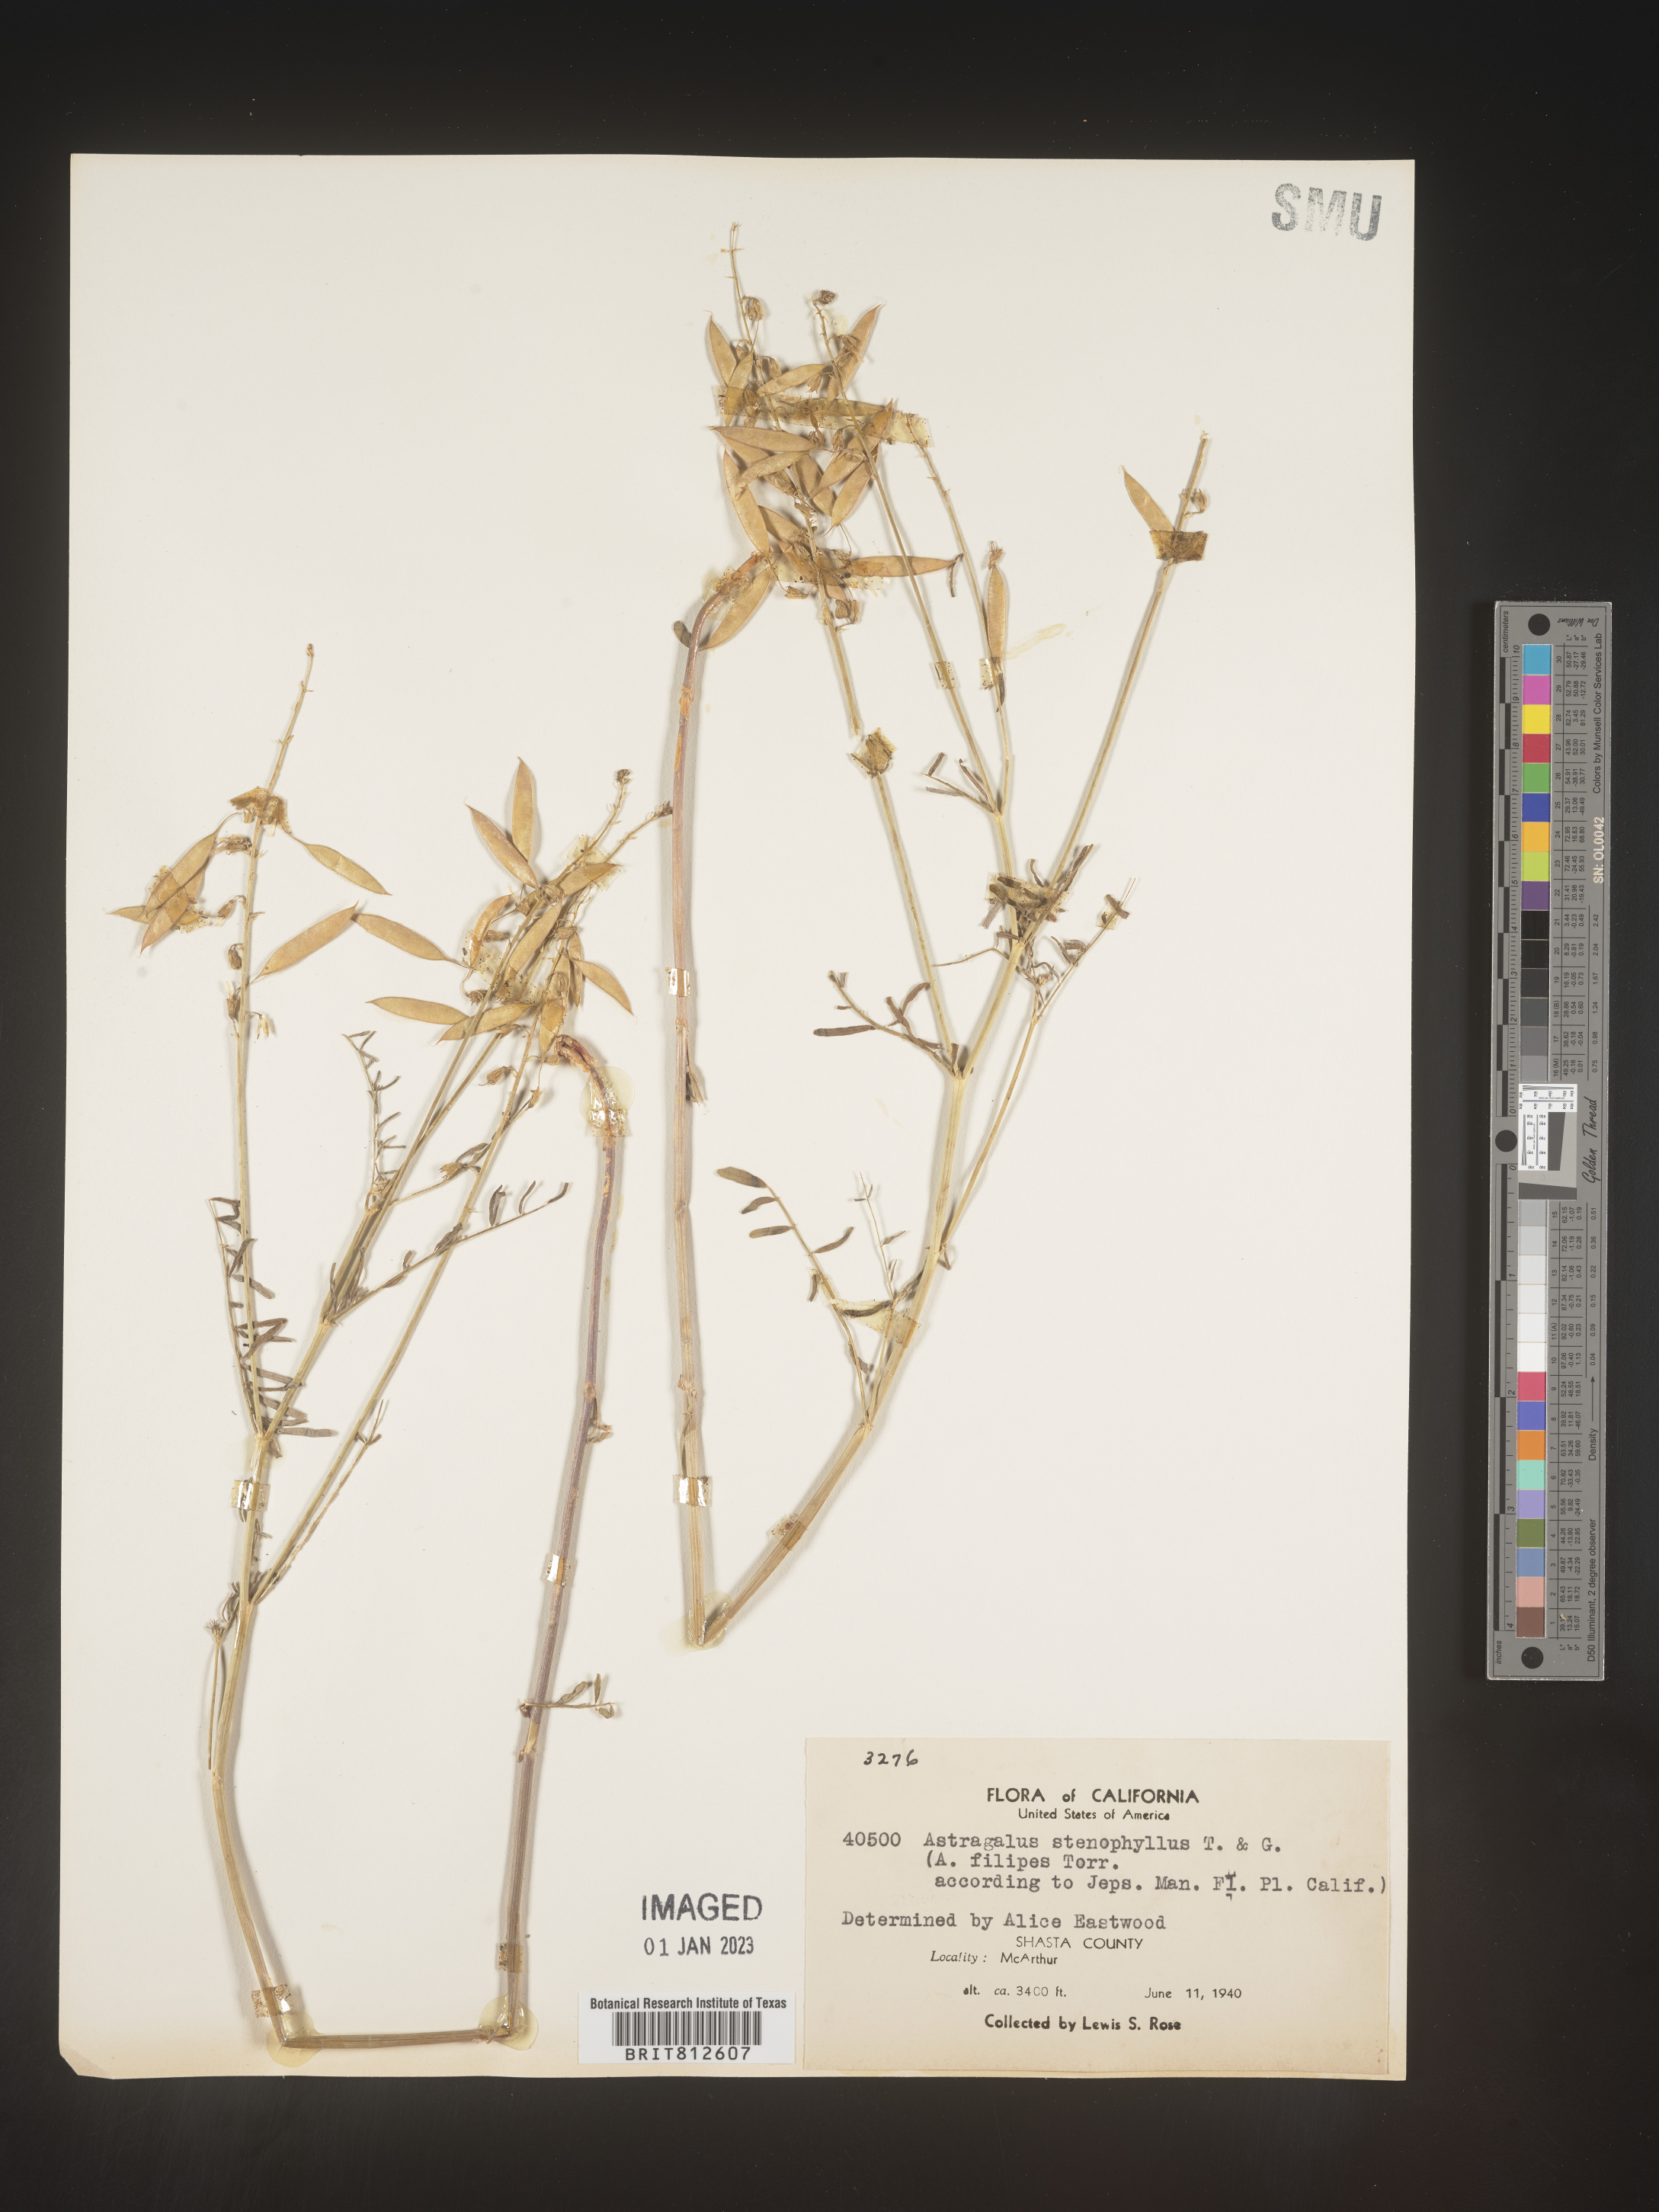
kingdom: Plantae
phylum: Tracheophyta
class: Magnoliopsida
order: Fabales
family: Fabaceae
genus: Astragalus
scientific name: Astragalus
